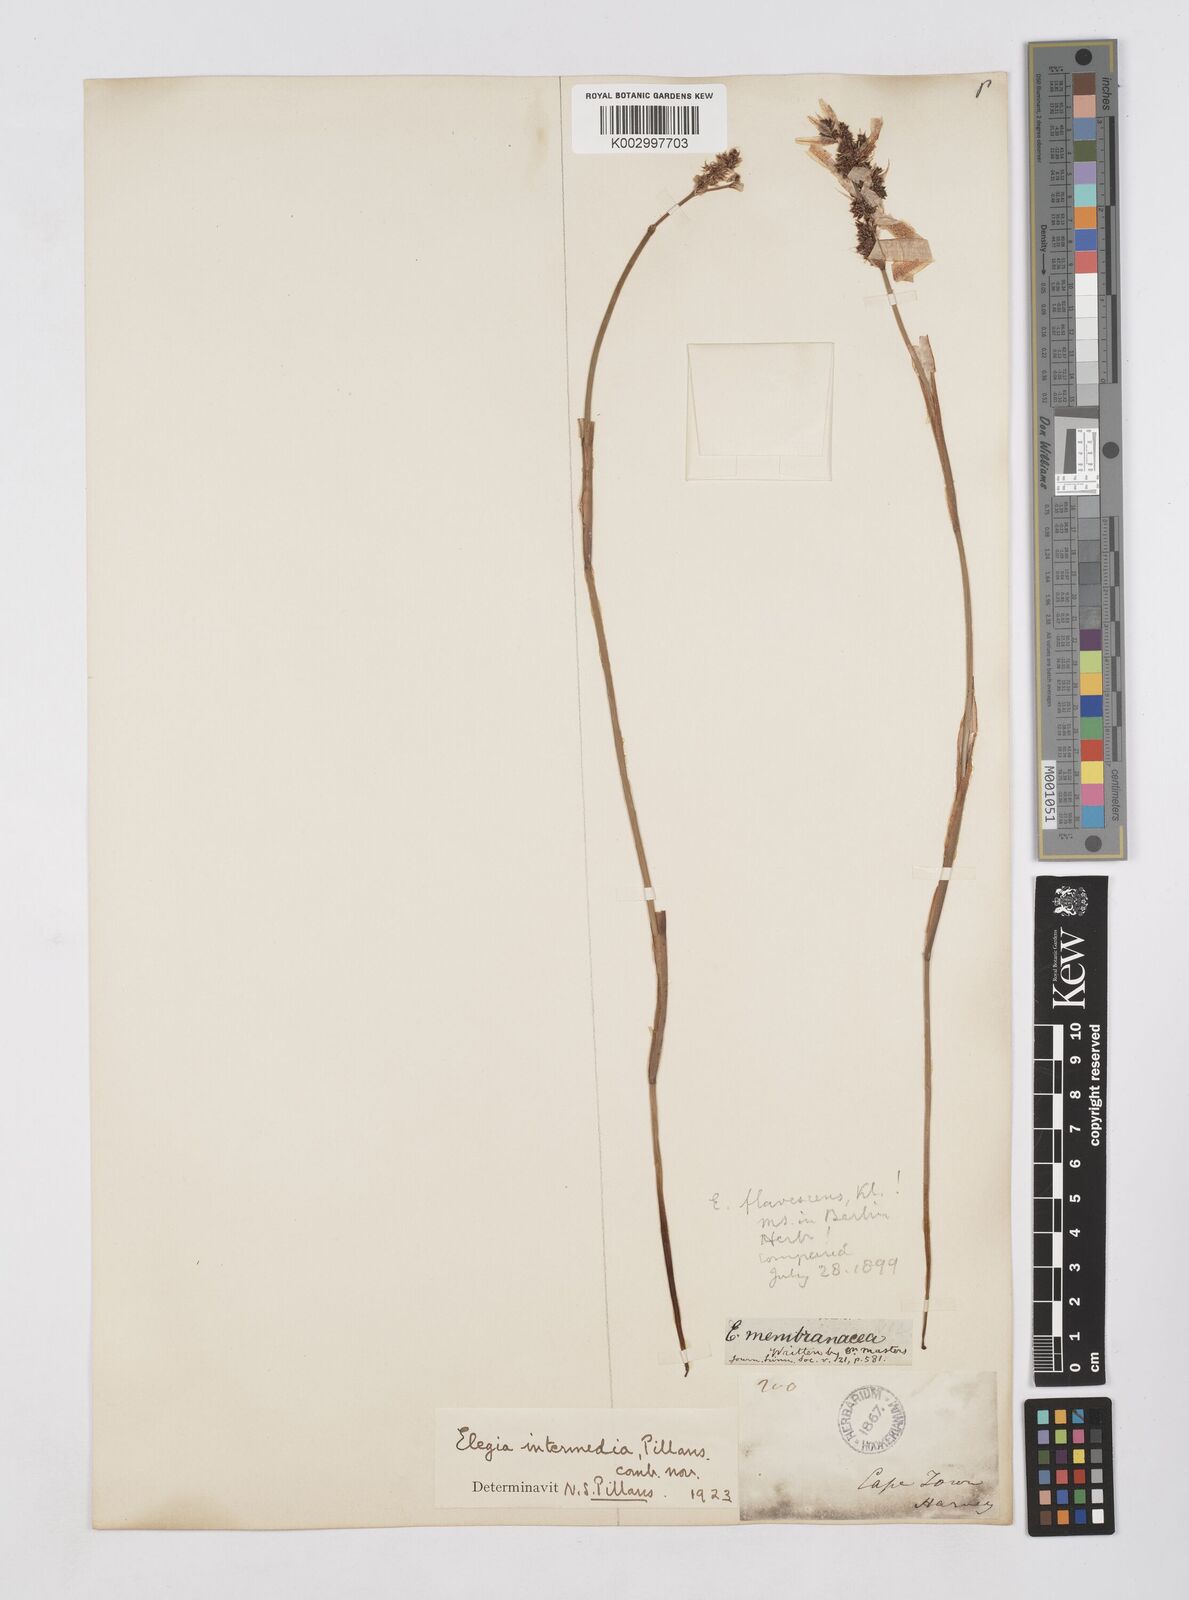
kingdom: Plantae
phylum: Tracheophyta
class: Liliopsida
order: Poales
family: Restionaceae
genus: Elegia
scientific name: Elegia intermedia
